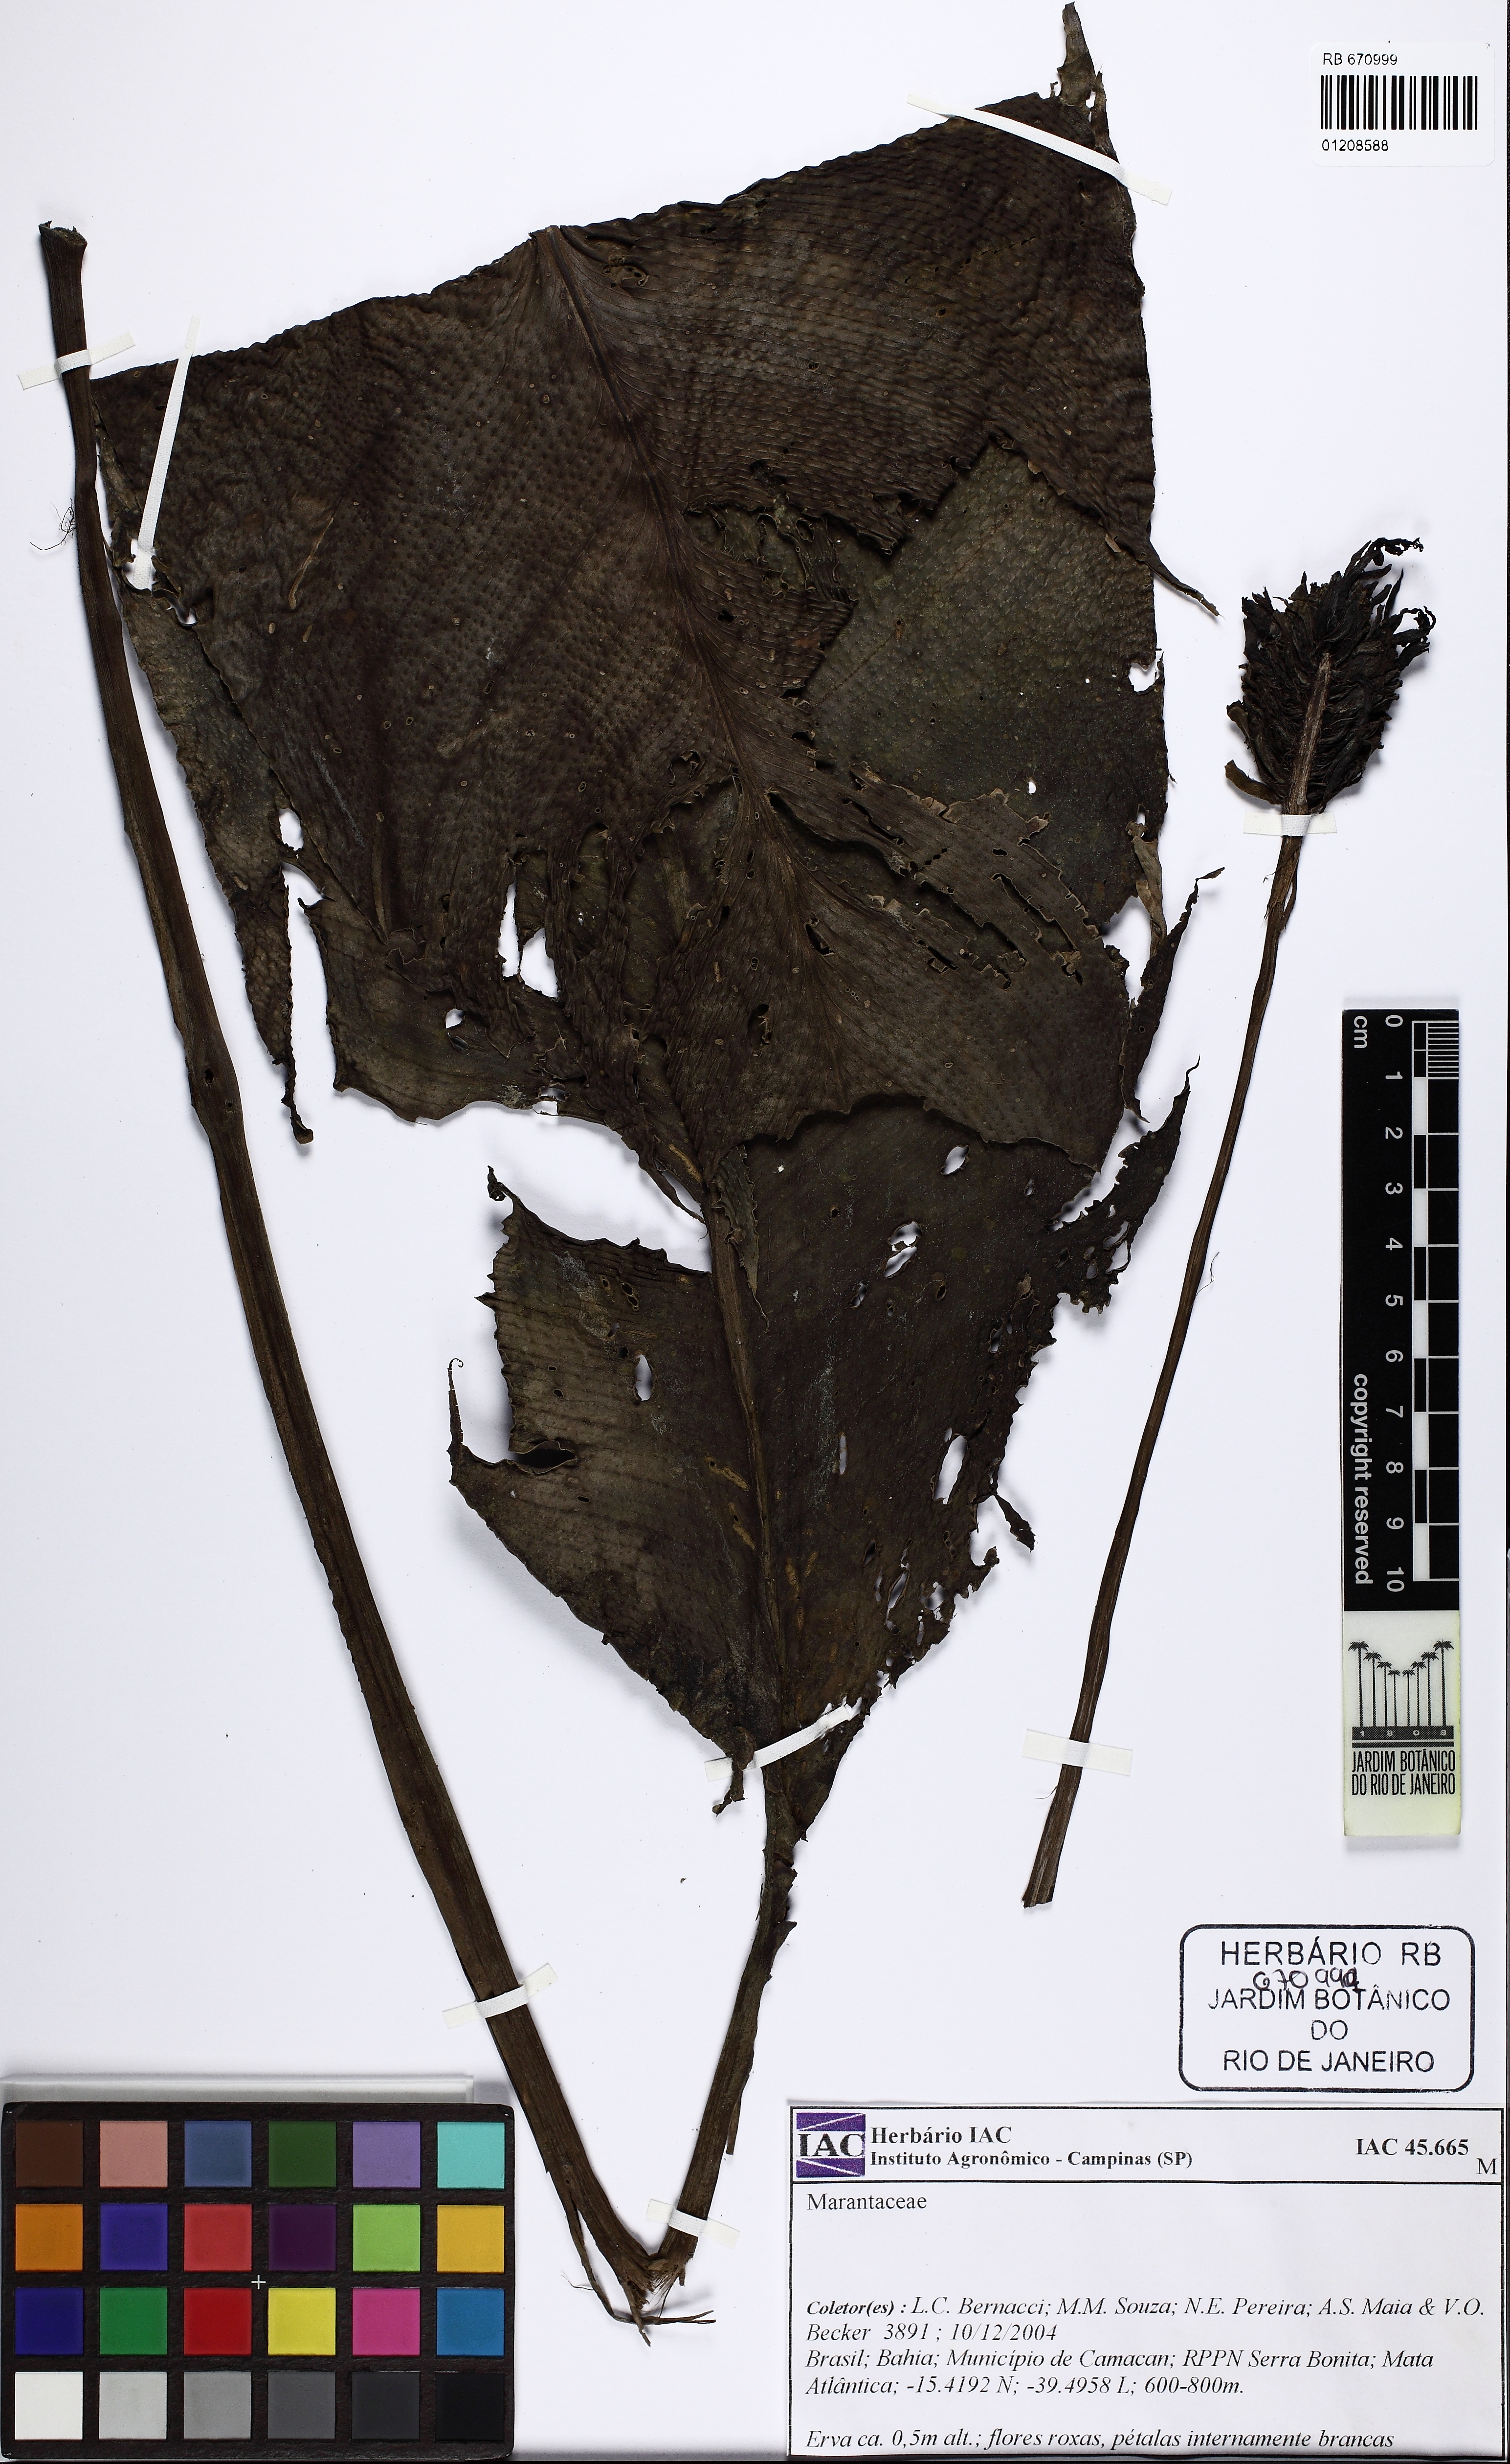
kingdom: Plantae
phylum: Tracheophyta
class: Liliopsida
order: Zingiberales
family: Marantaceae
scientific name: Marantaceae
